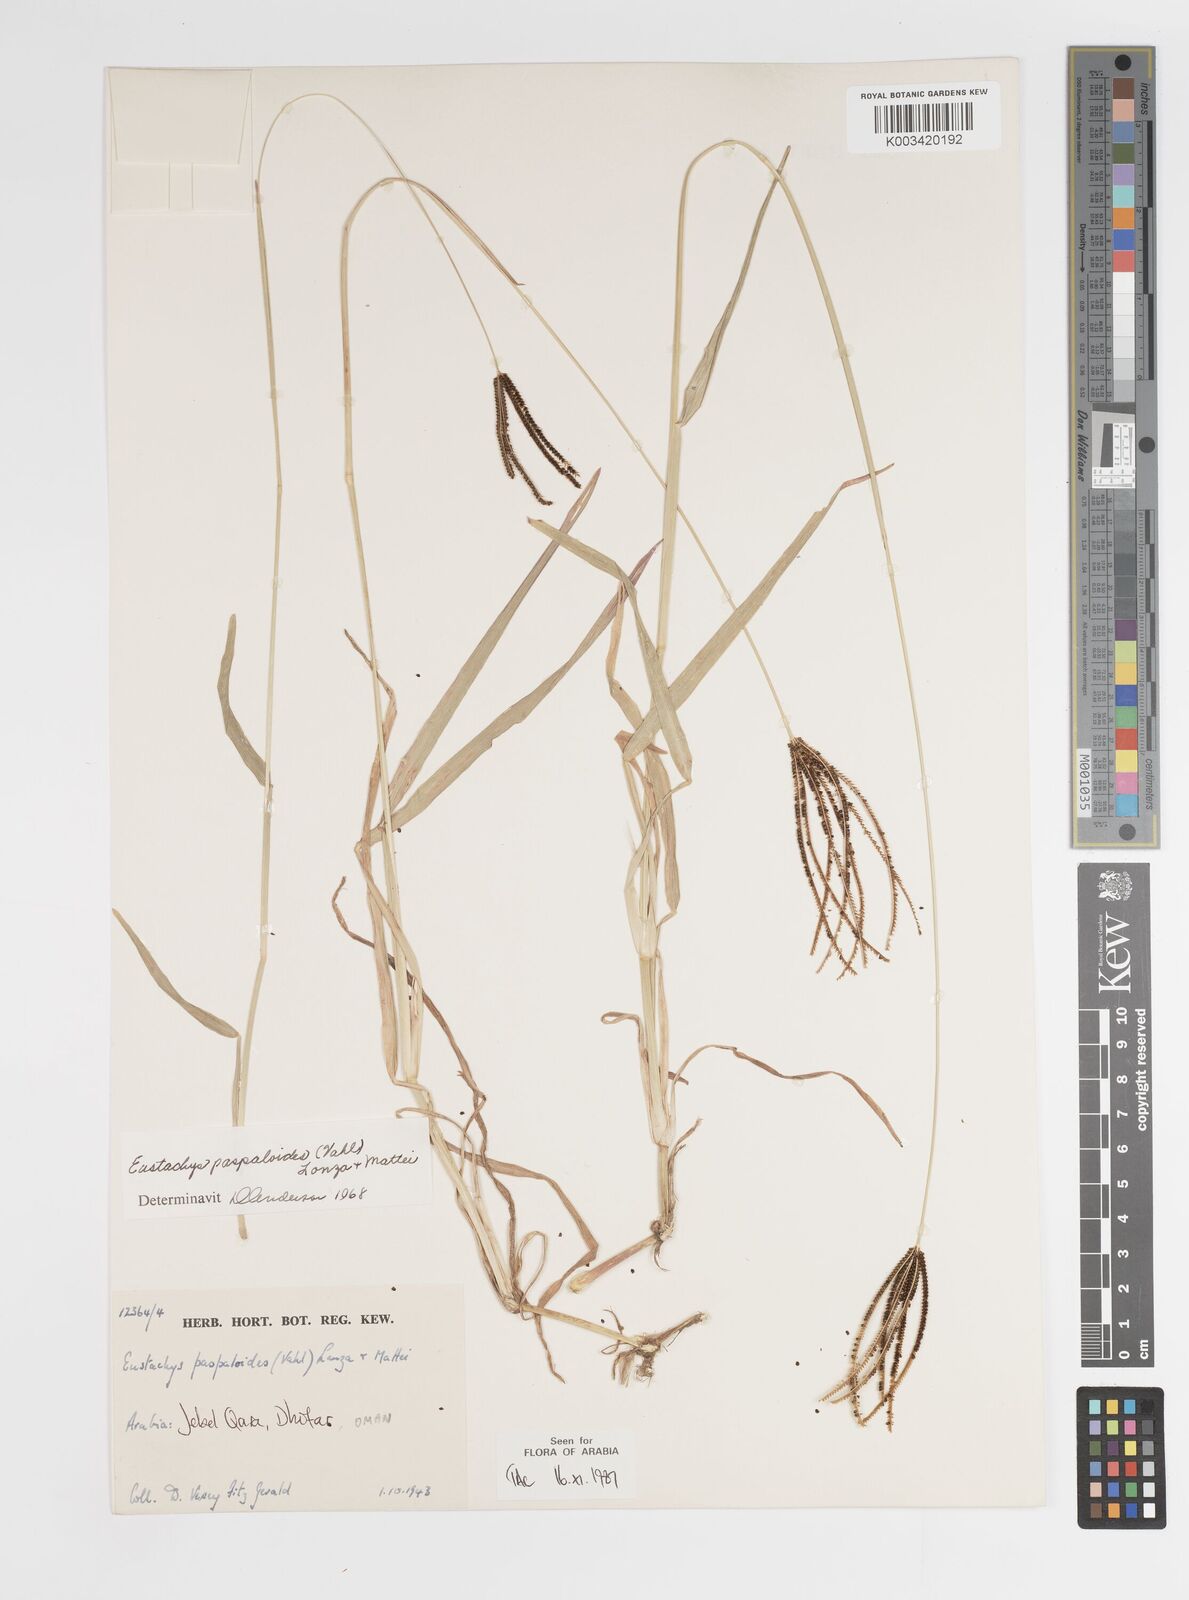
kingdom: Plantae
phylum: Tracheophyta
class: Liliopsida
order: Poales
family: Poaceae
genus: Eustachys
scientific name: Eustachys paspaloides
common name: Caribbean fingergrass
